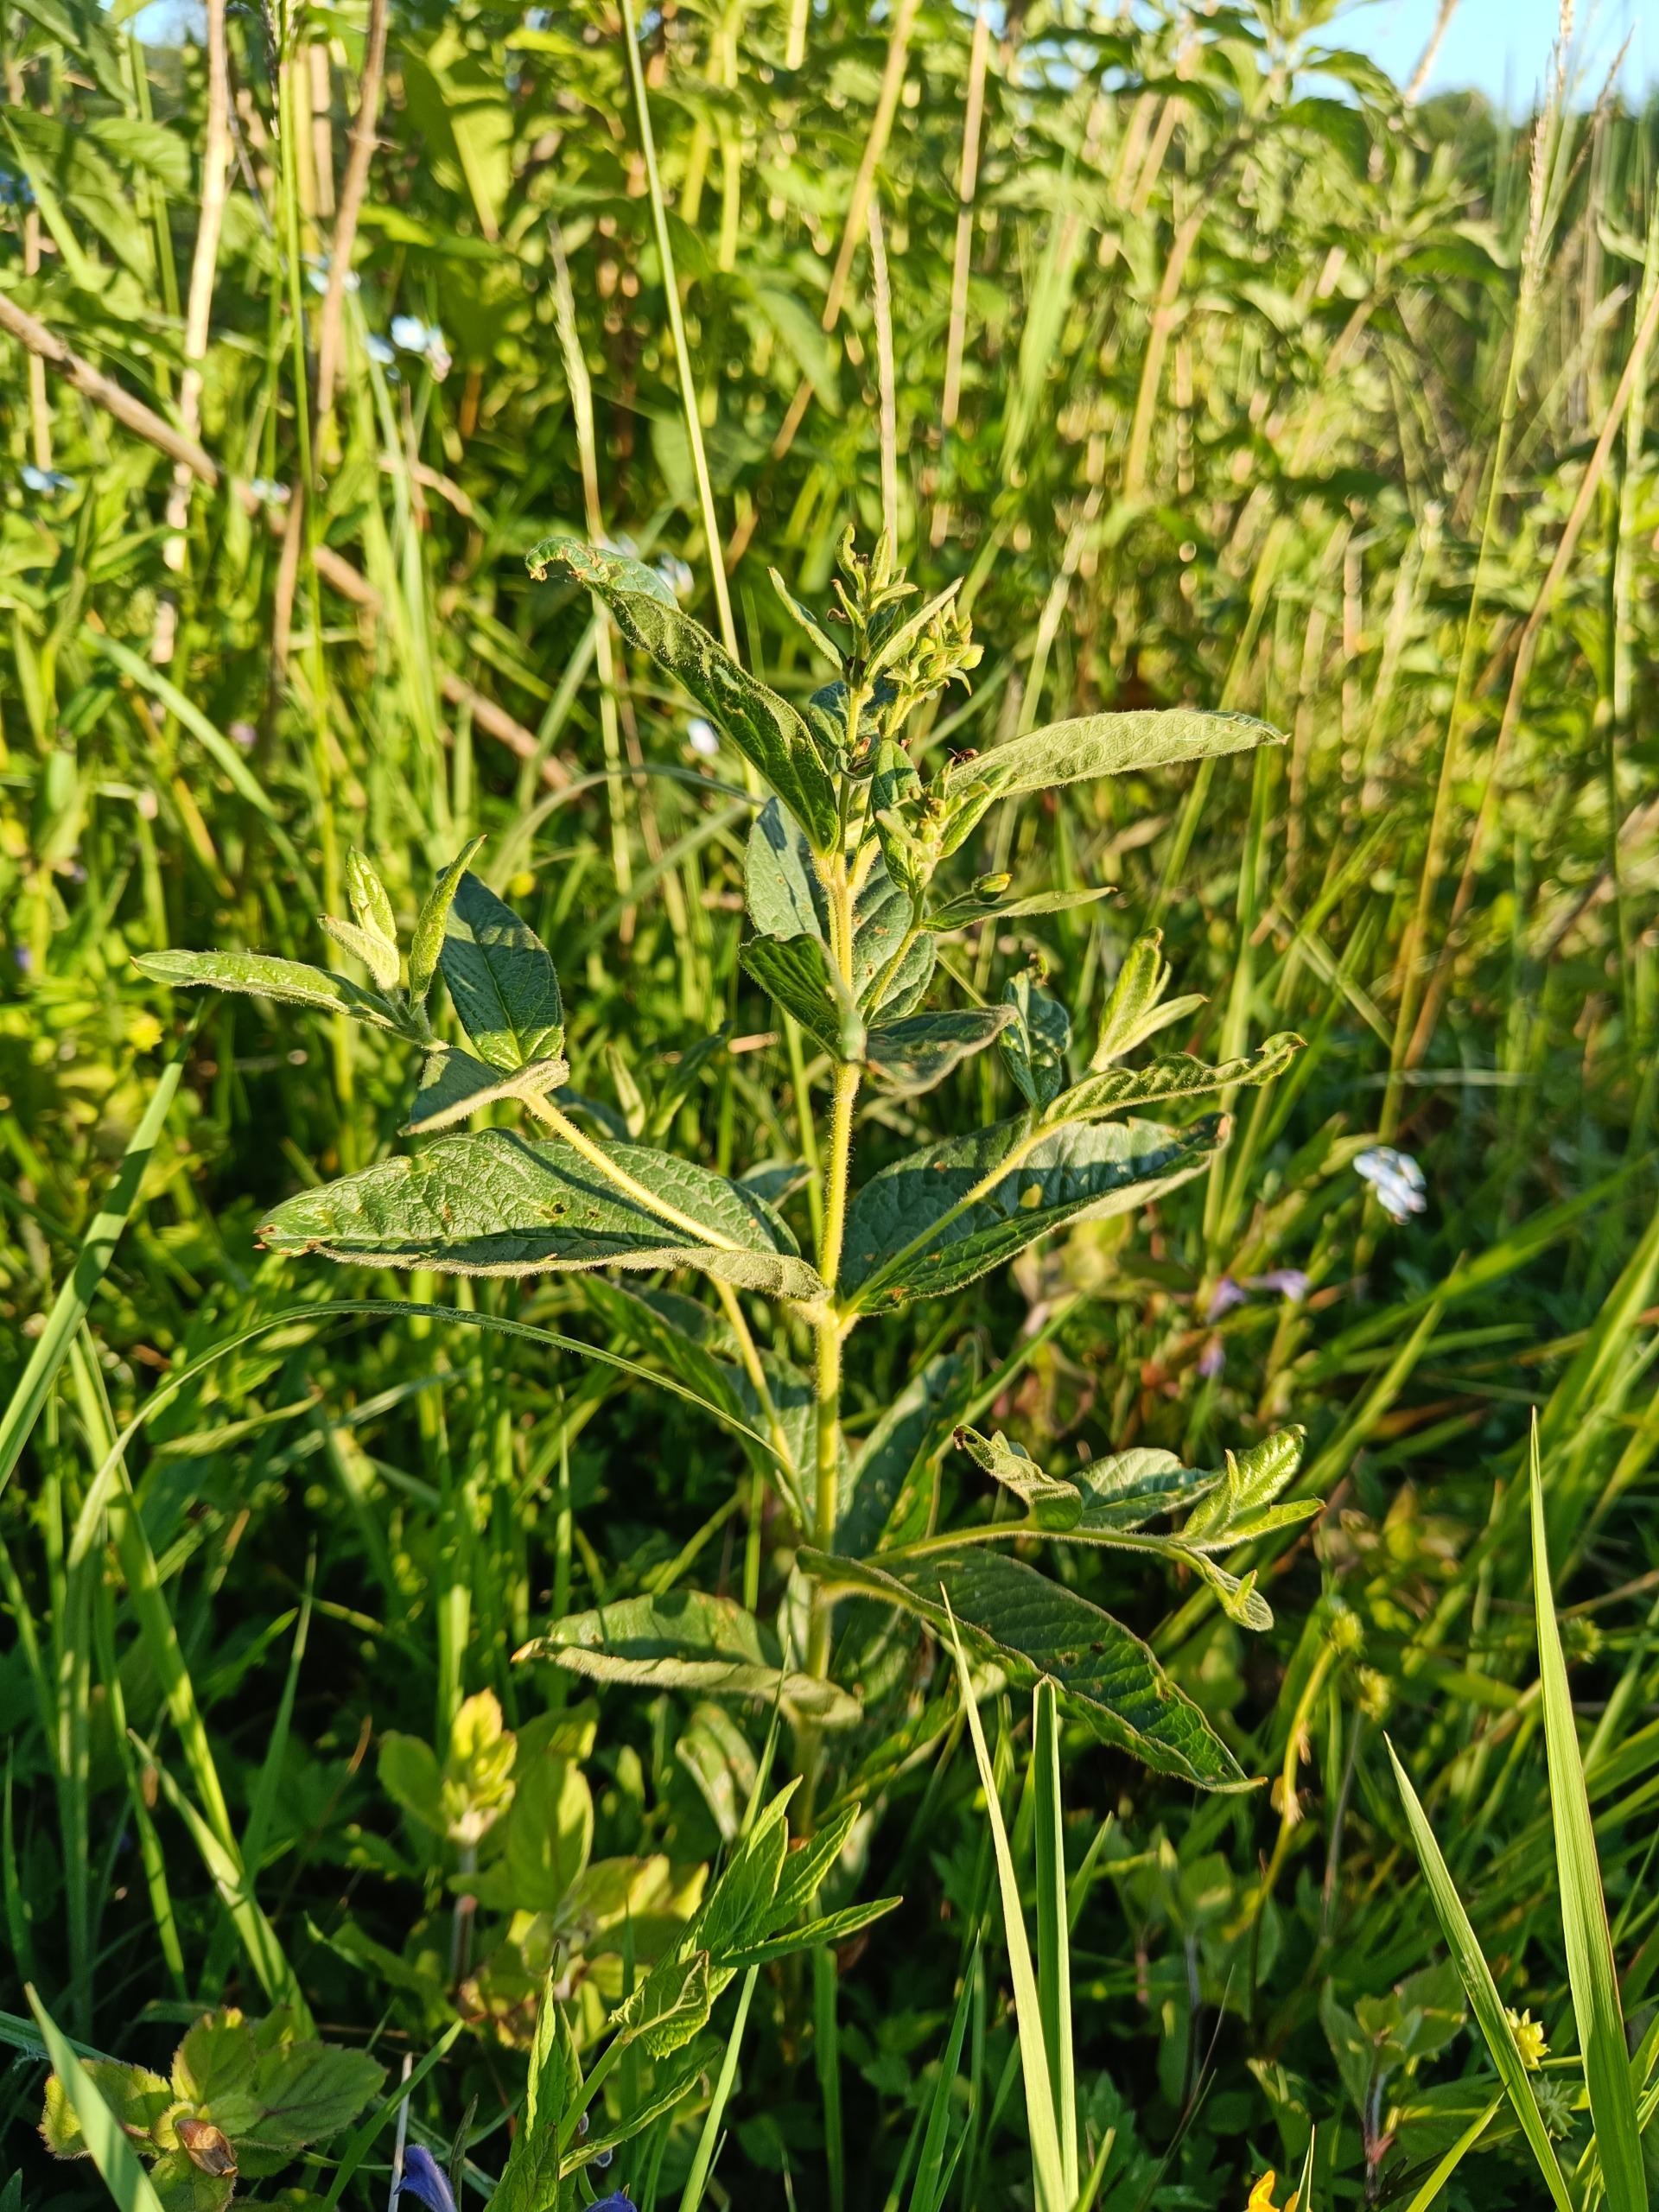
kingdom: Plantae
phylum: Tracheophyta
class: Magnoliopsida
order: Ericales
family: Primulaceae
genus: Lysimachia
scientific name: Lysimachia vulgaris
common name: Almindelig fredløs
